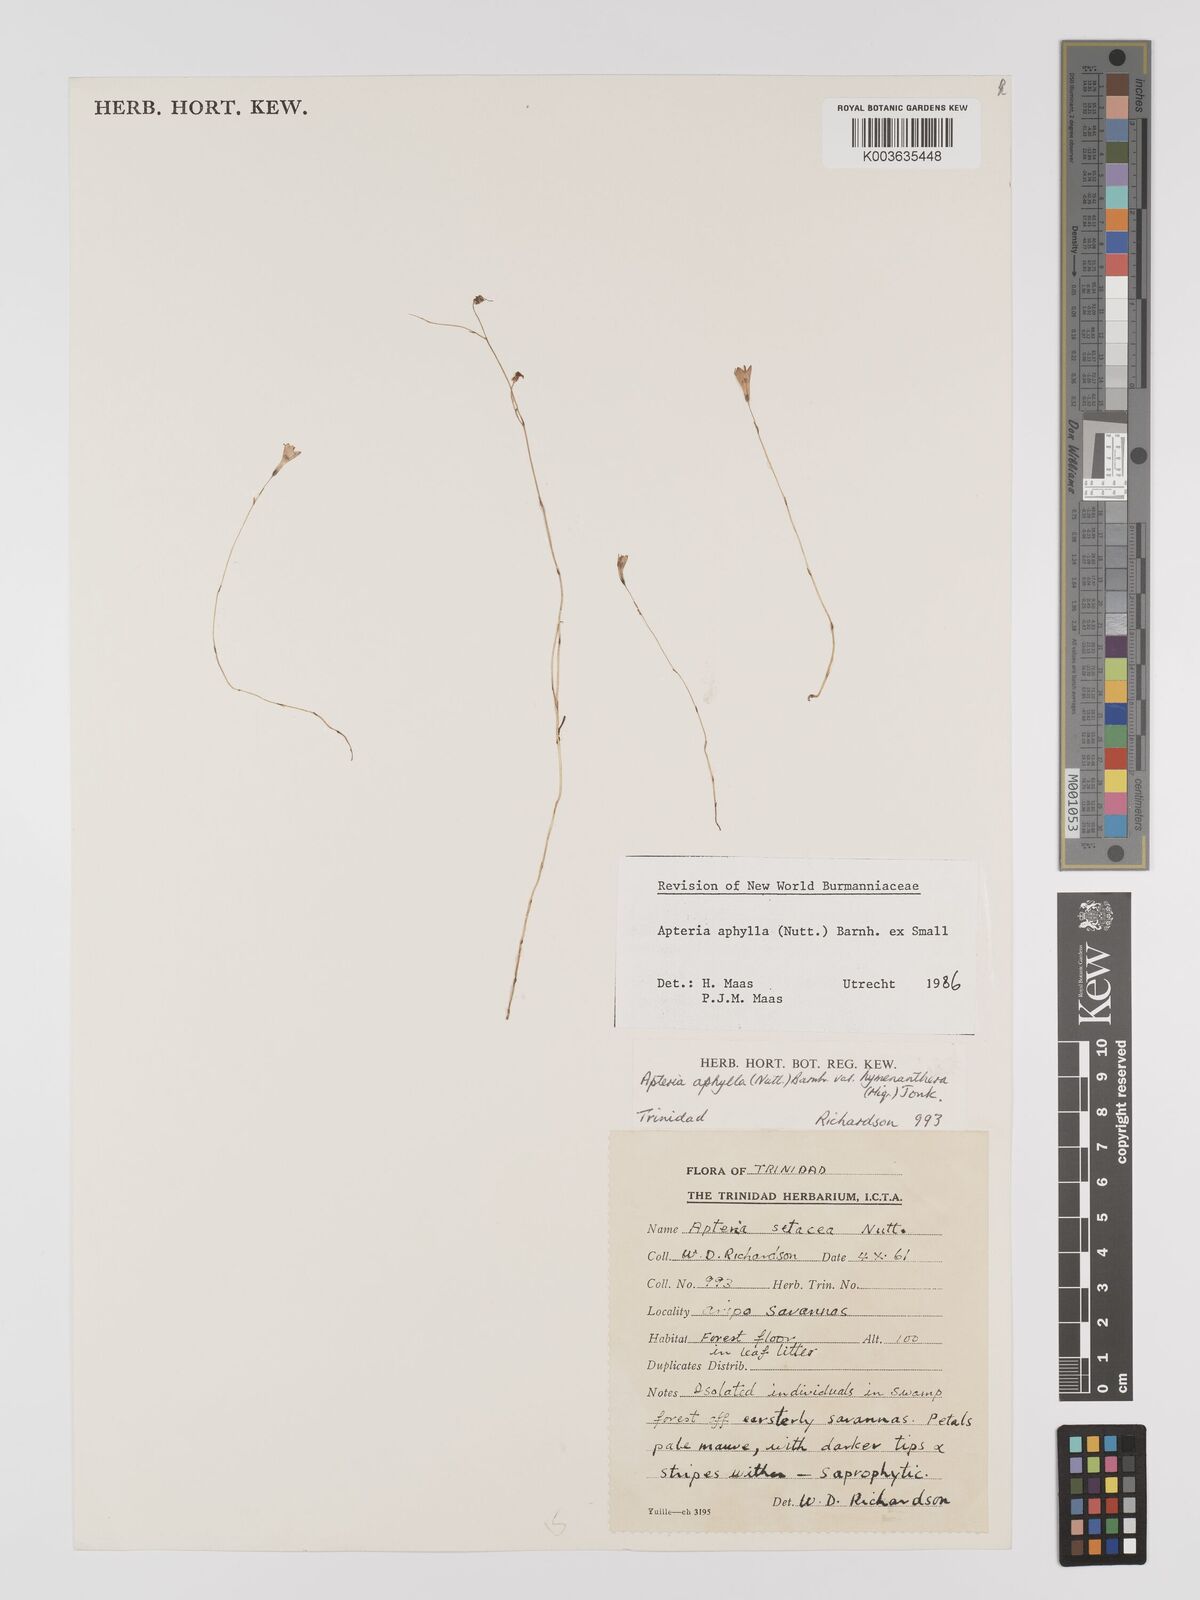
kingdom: Plantae
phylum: Tracheophyta
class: Liliopsida
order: Dioscoreales
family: Burmanniaceae
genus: Apteria
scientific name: Apteria aphylla
